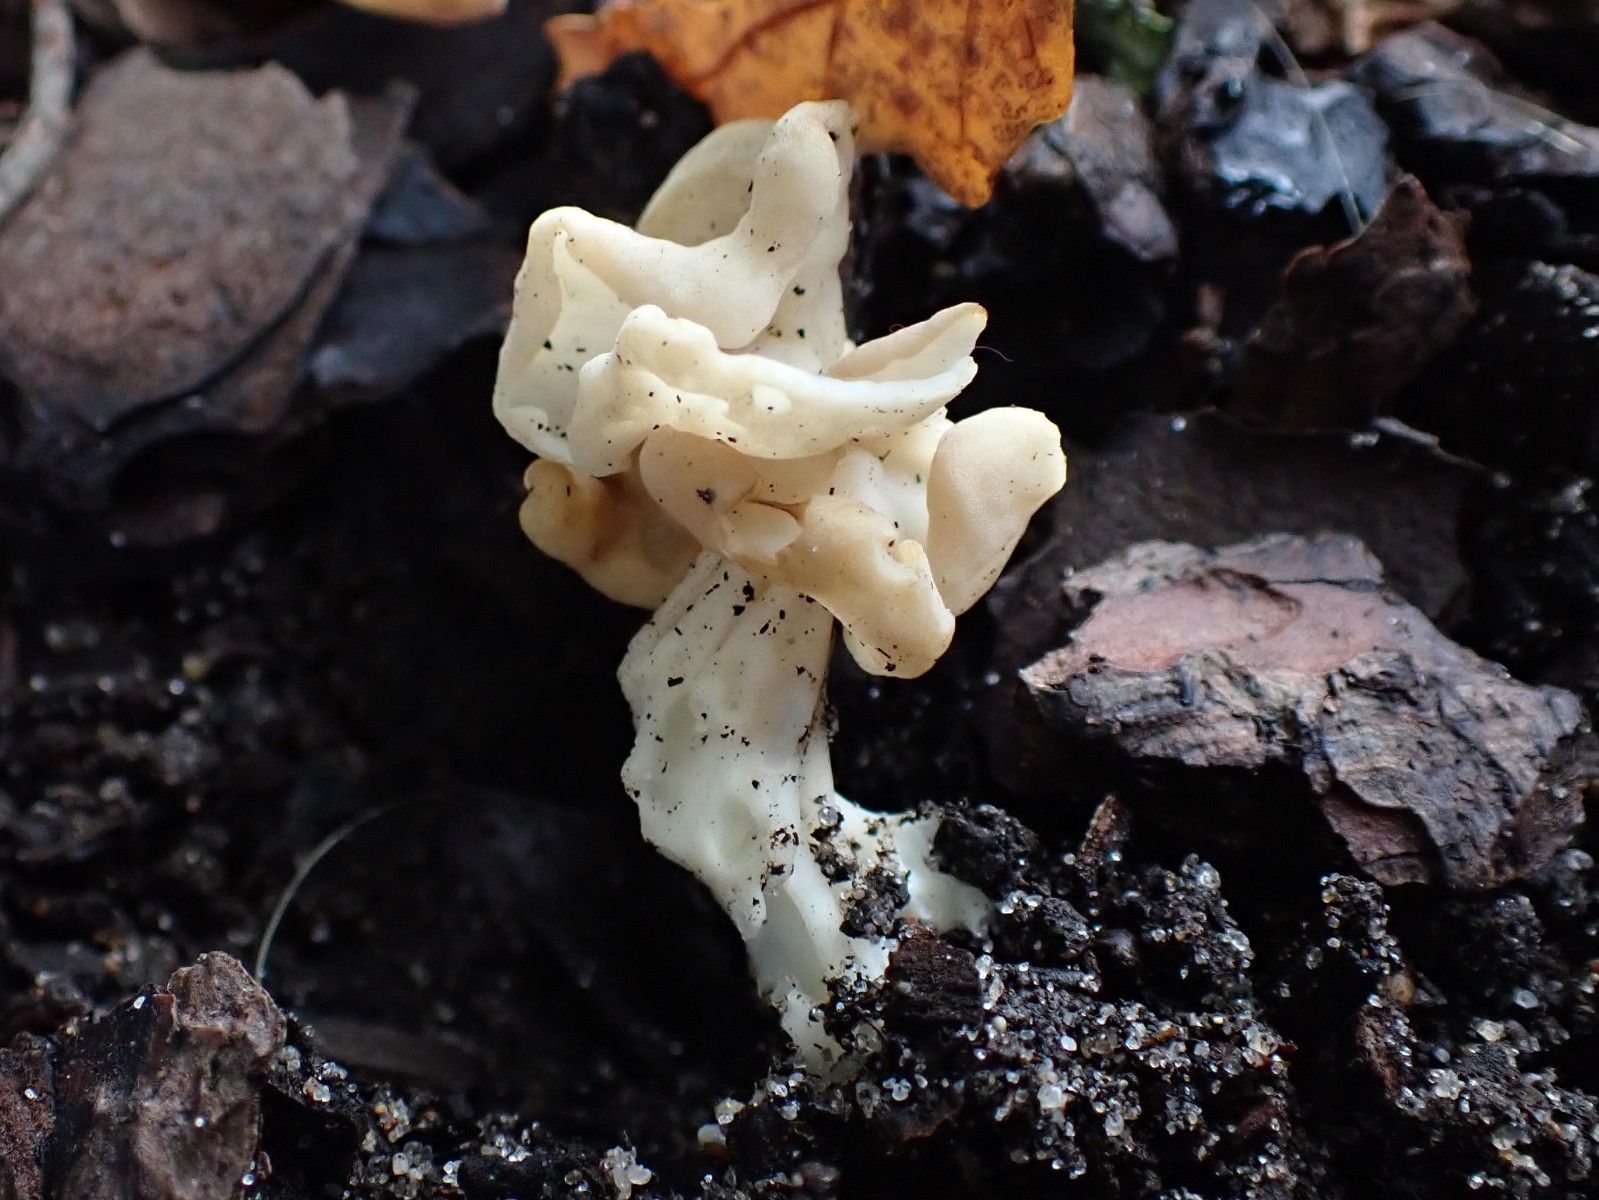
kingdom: Fungi
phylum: Ascomycota
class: Pezizomycetes
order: Pezizales
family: Helvellaceae
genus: Helvella
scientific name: Helvella crispa
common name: kruset foldhat
